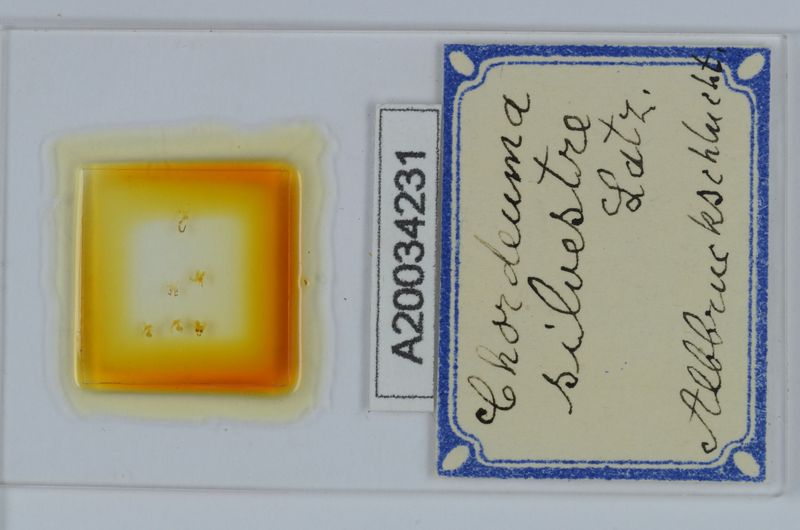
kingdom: Animalia
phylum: Arthropoda
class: Diplopoda
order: Chordeumatida
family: Chordeumatidae
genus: Chordeuma
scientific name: Chordeuma sylvestre
